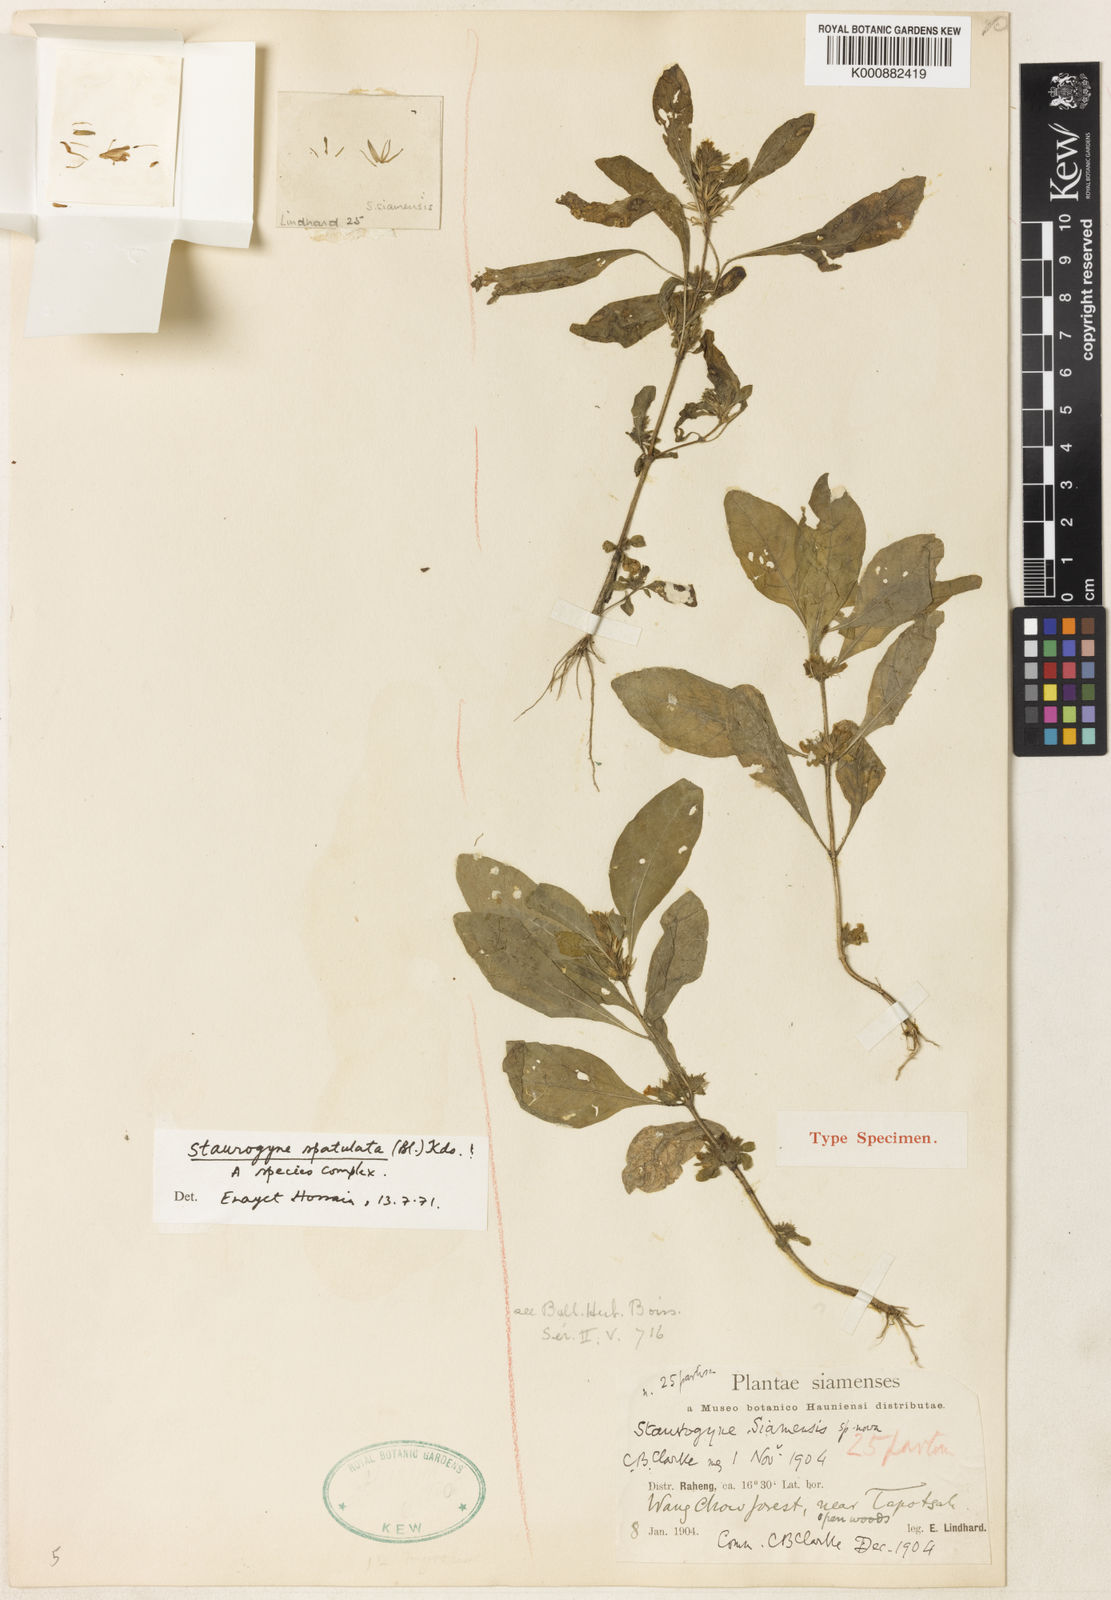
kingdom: Plantae
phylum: Tracheophyta
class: Magnoliopsida
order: Lamiales
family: Acanthaceae
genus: Staurogyne
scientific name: Staurogyne
